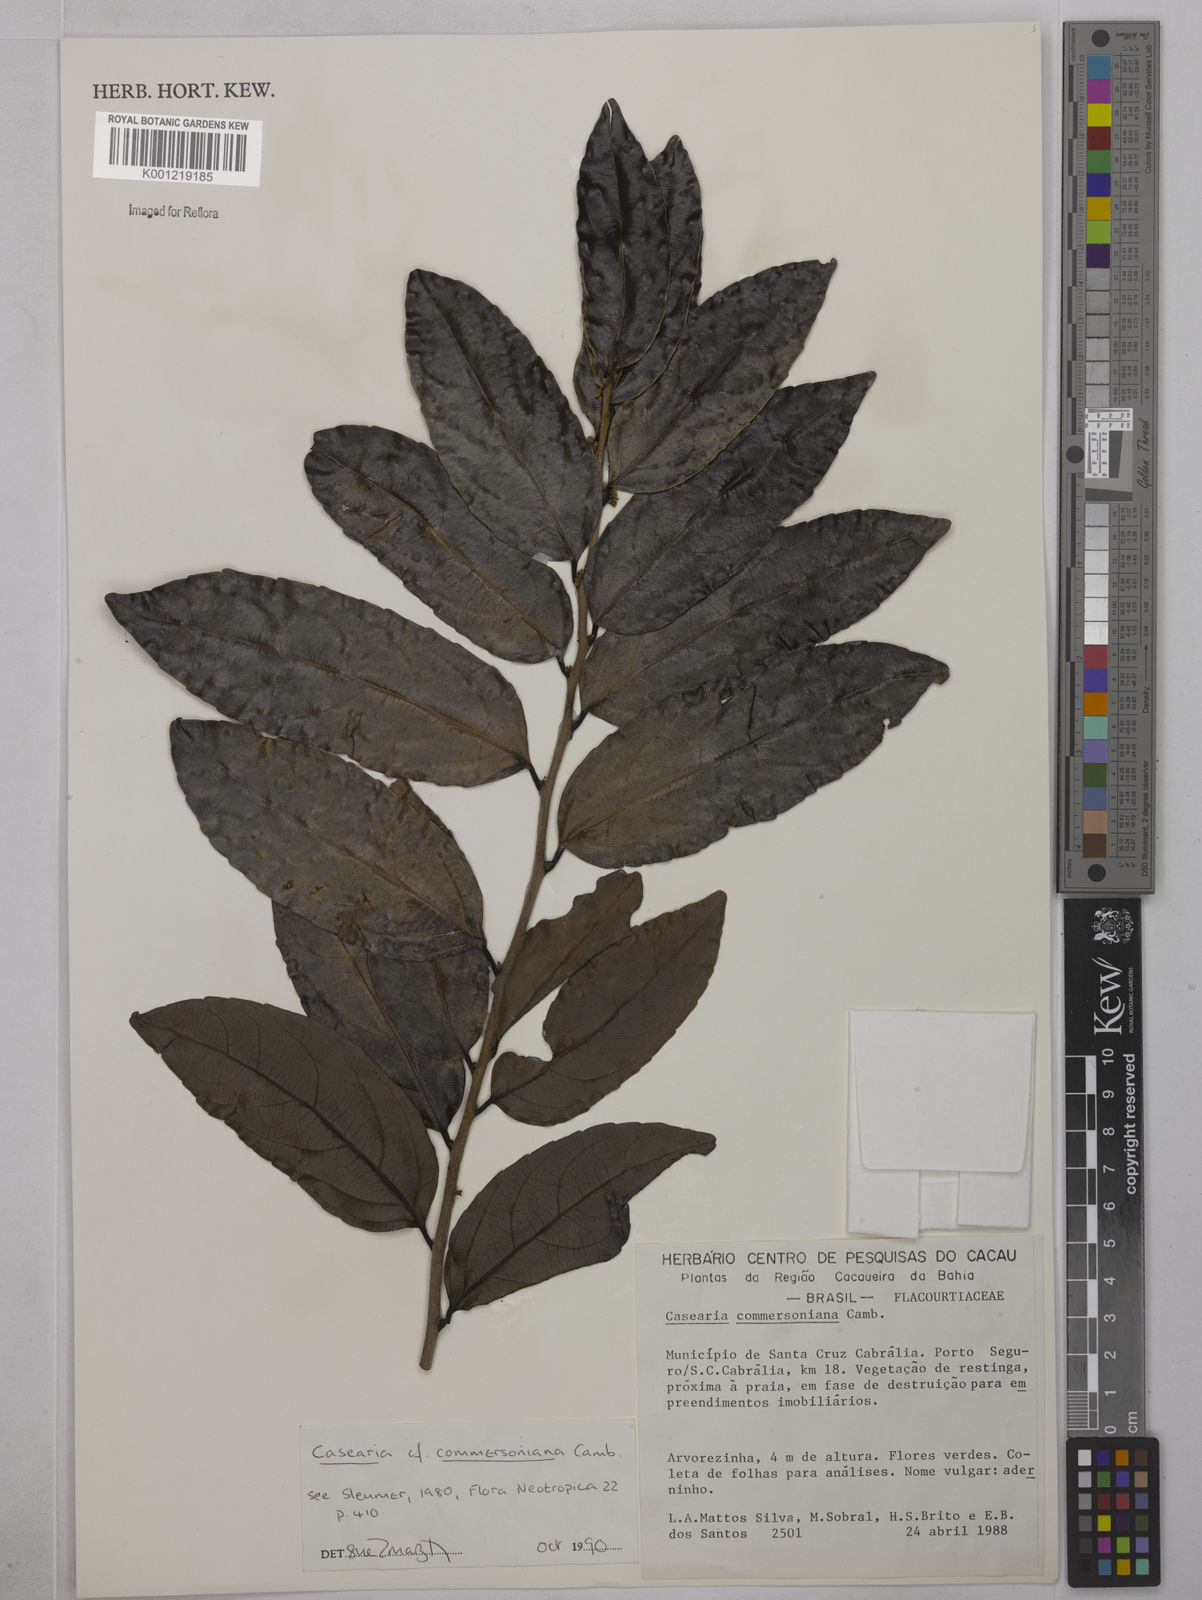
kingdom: Plantae
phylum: Tracheophyta
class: Magnoliopsida
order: Malpighiales
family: Salicaceae
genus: Piparea
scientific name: Piparea dentata
